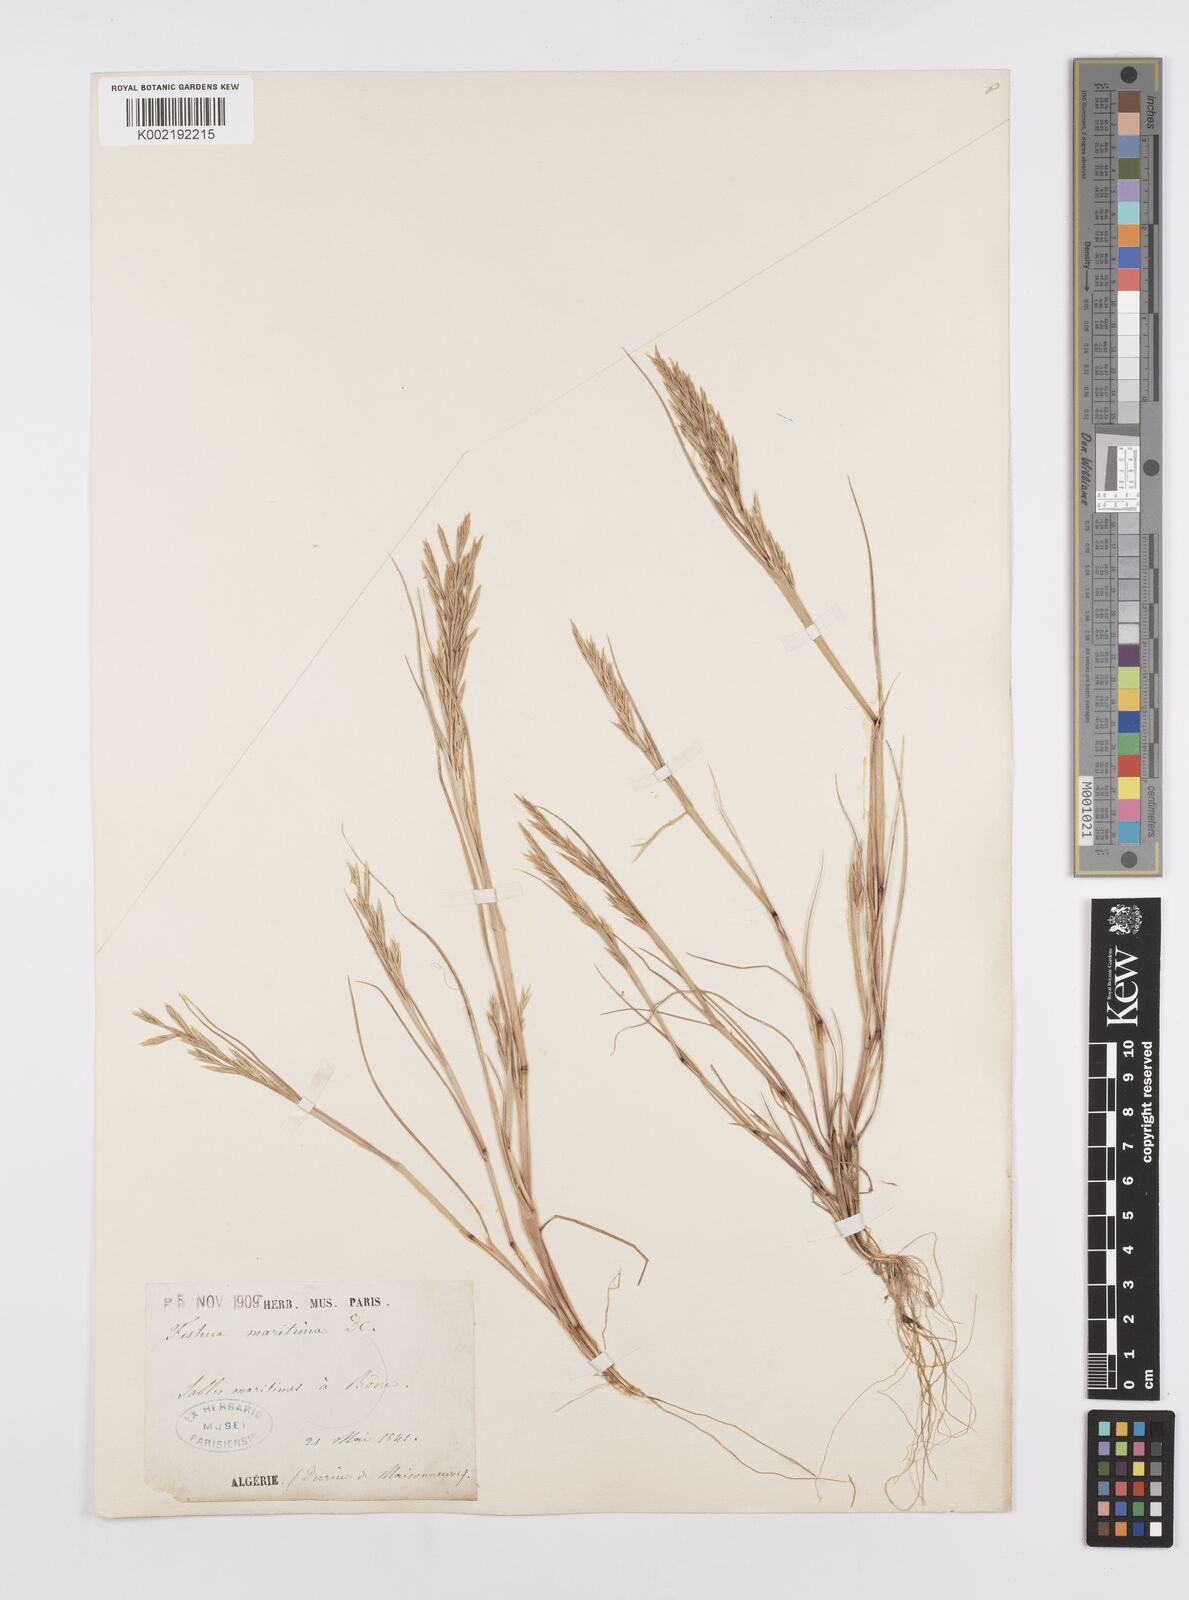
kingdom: Plantae
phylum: Tracheophyta
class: Liliopsida
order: Poales
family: Poaceae
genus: Cutandia
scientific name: Cutandia maritima
